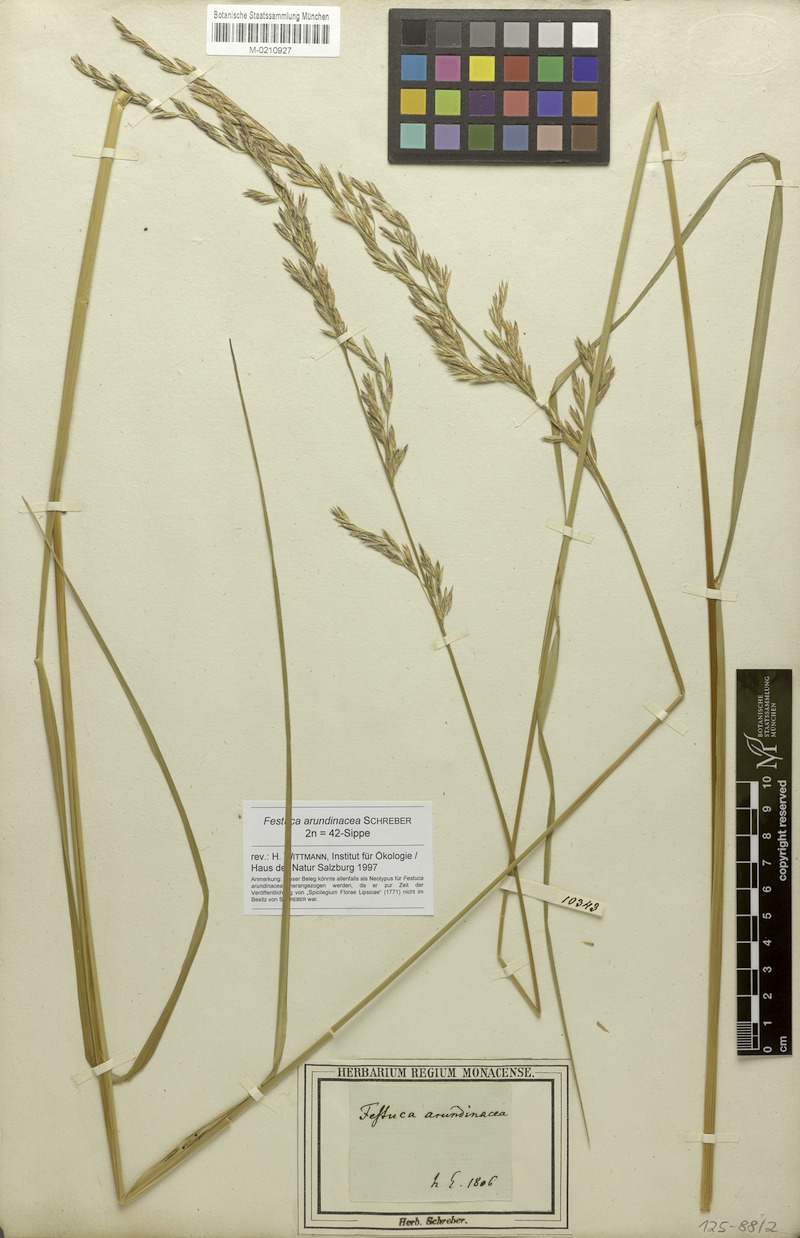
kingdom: Plantae
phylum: Tracheophyta
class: Liliopsida
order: Poales
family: Poaceae
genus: Lolium
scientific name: Lolium arundinaceum
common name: Reed fescue
